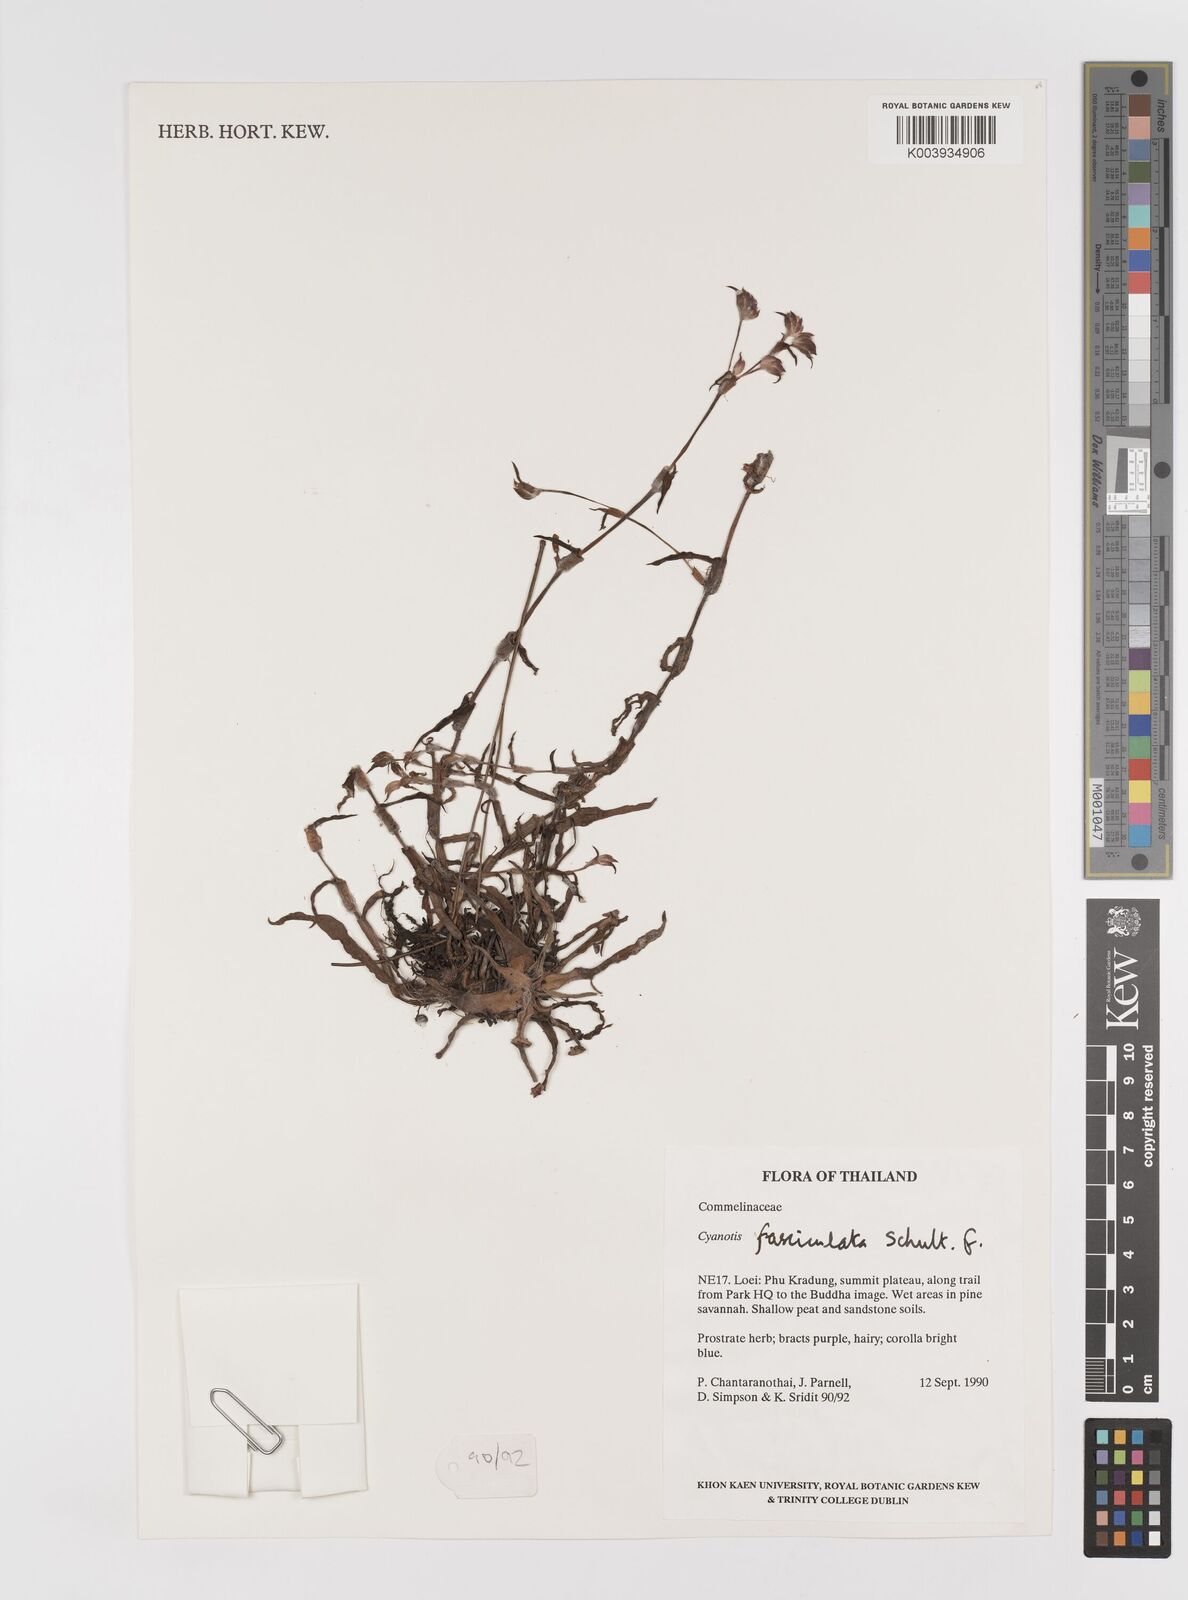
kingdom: Plantae
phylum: Tracheophyta
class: Liliopsida
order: Commelinales
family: Commelinaceae
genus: Cyanotis
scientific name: Cyanotis fasciculata
